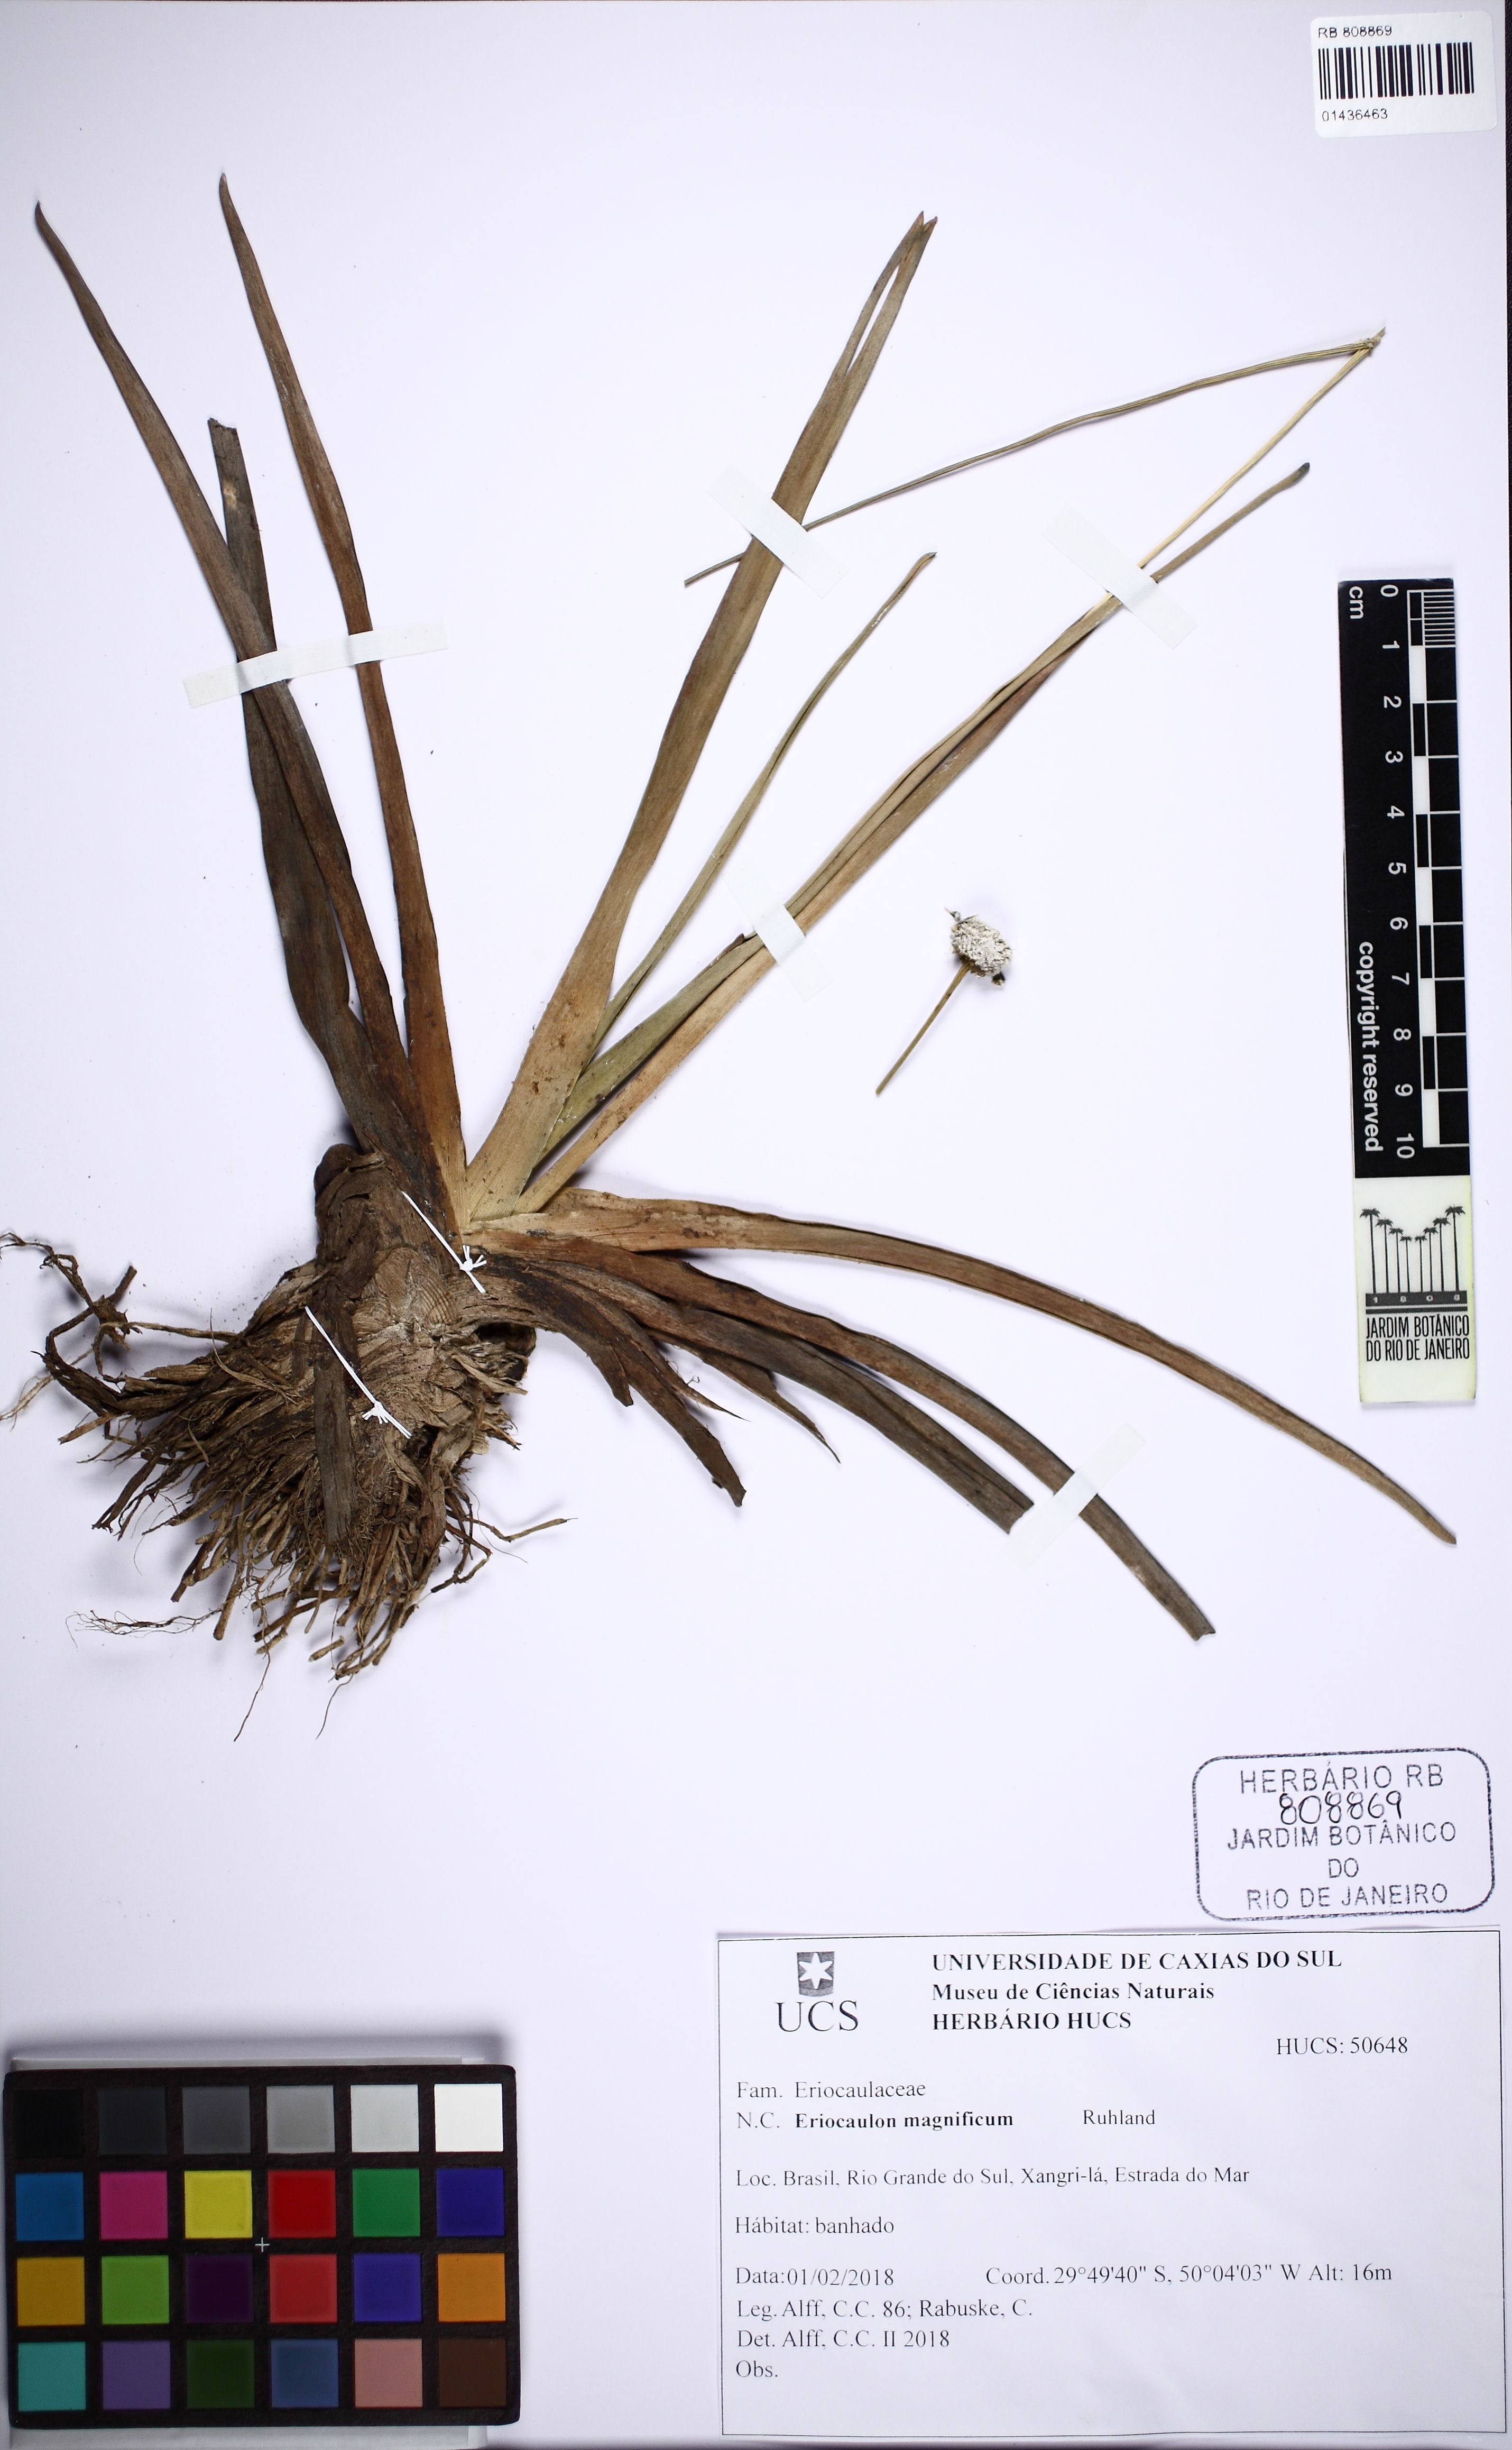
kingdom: Plantae
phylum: Tracheophyta
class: Liliopsida
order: Poales
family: Eriocaulaceae
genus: Eriocaulon
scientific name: Eriocaulon magnificum
